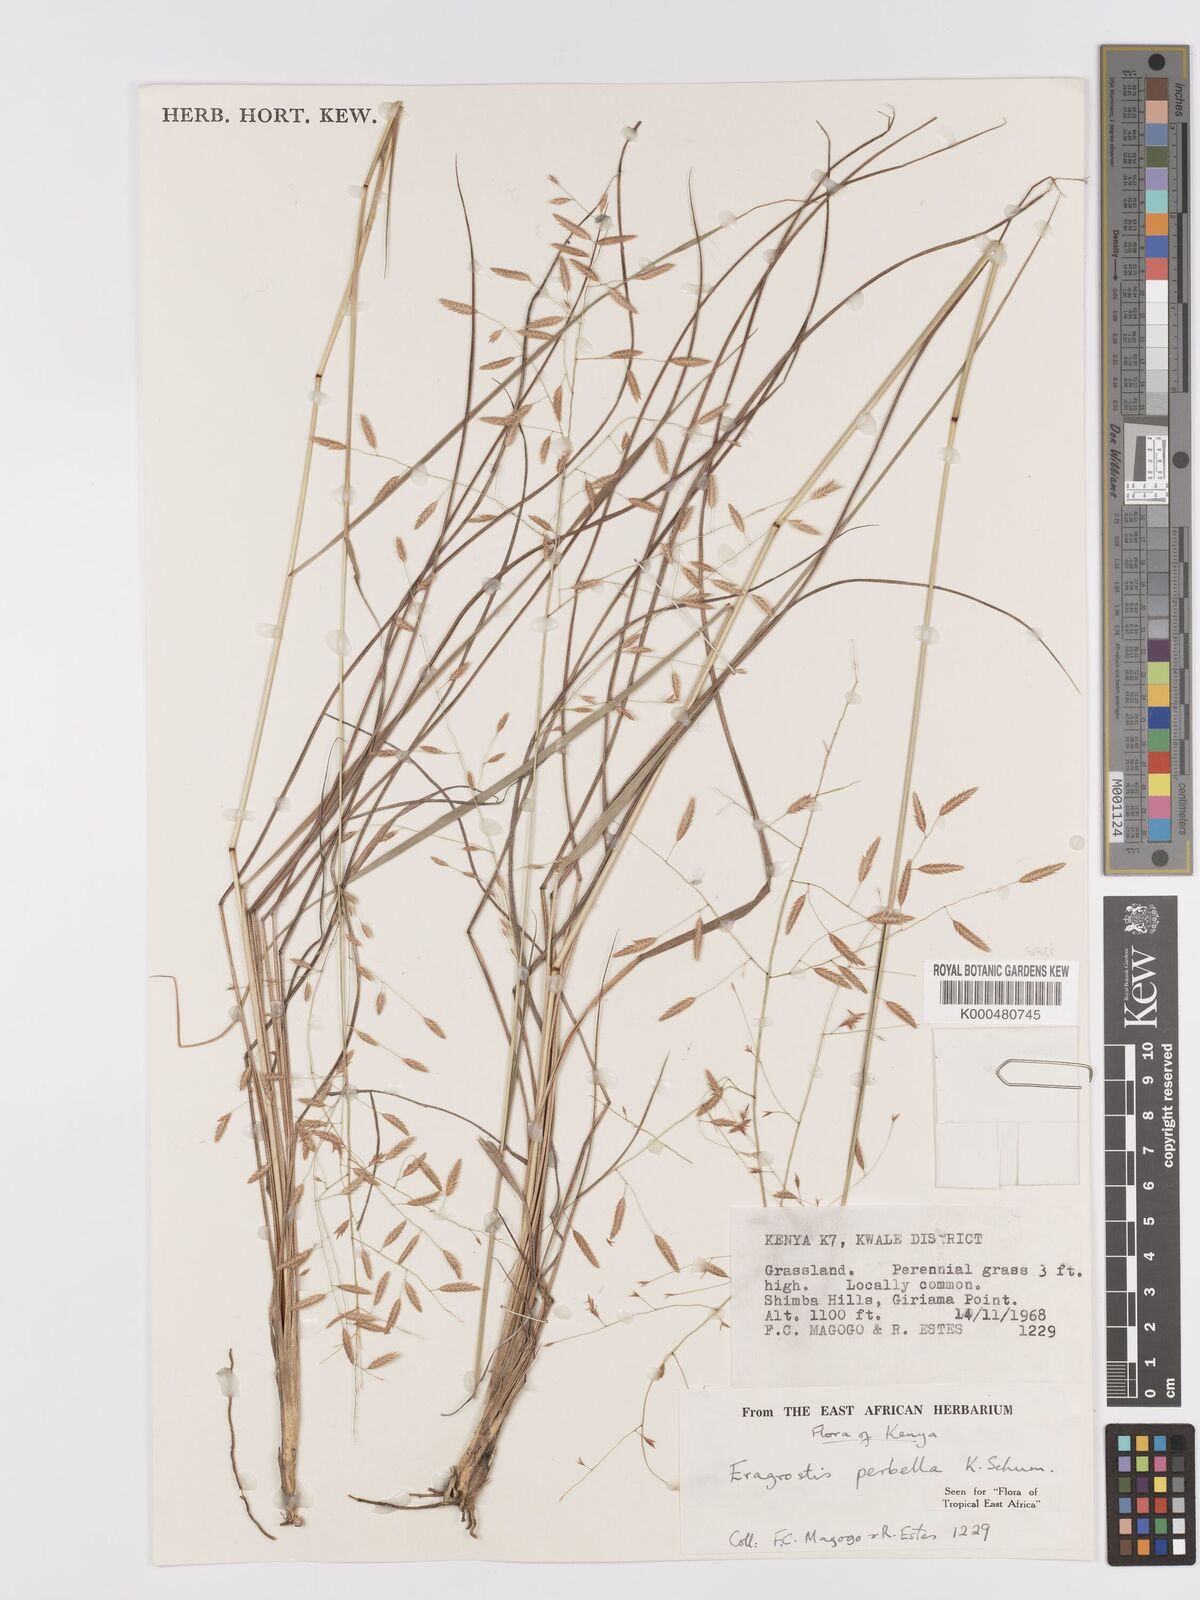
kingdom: Plantae
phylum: Tracheophyta
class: Liliopsida
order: Poales
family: Poaceae
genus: Eragrostis
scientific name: Eragrostis perbella
